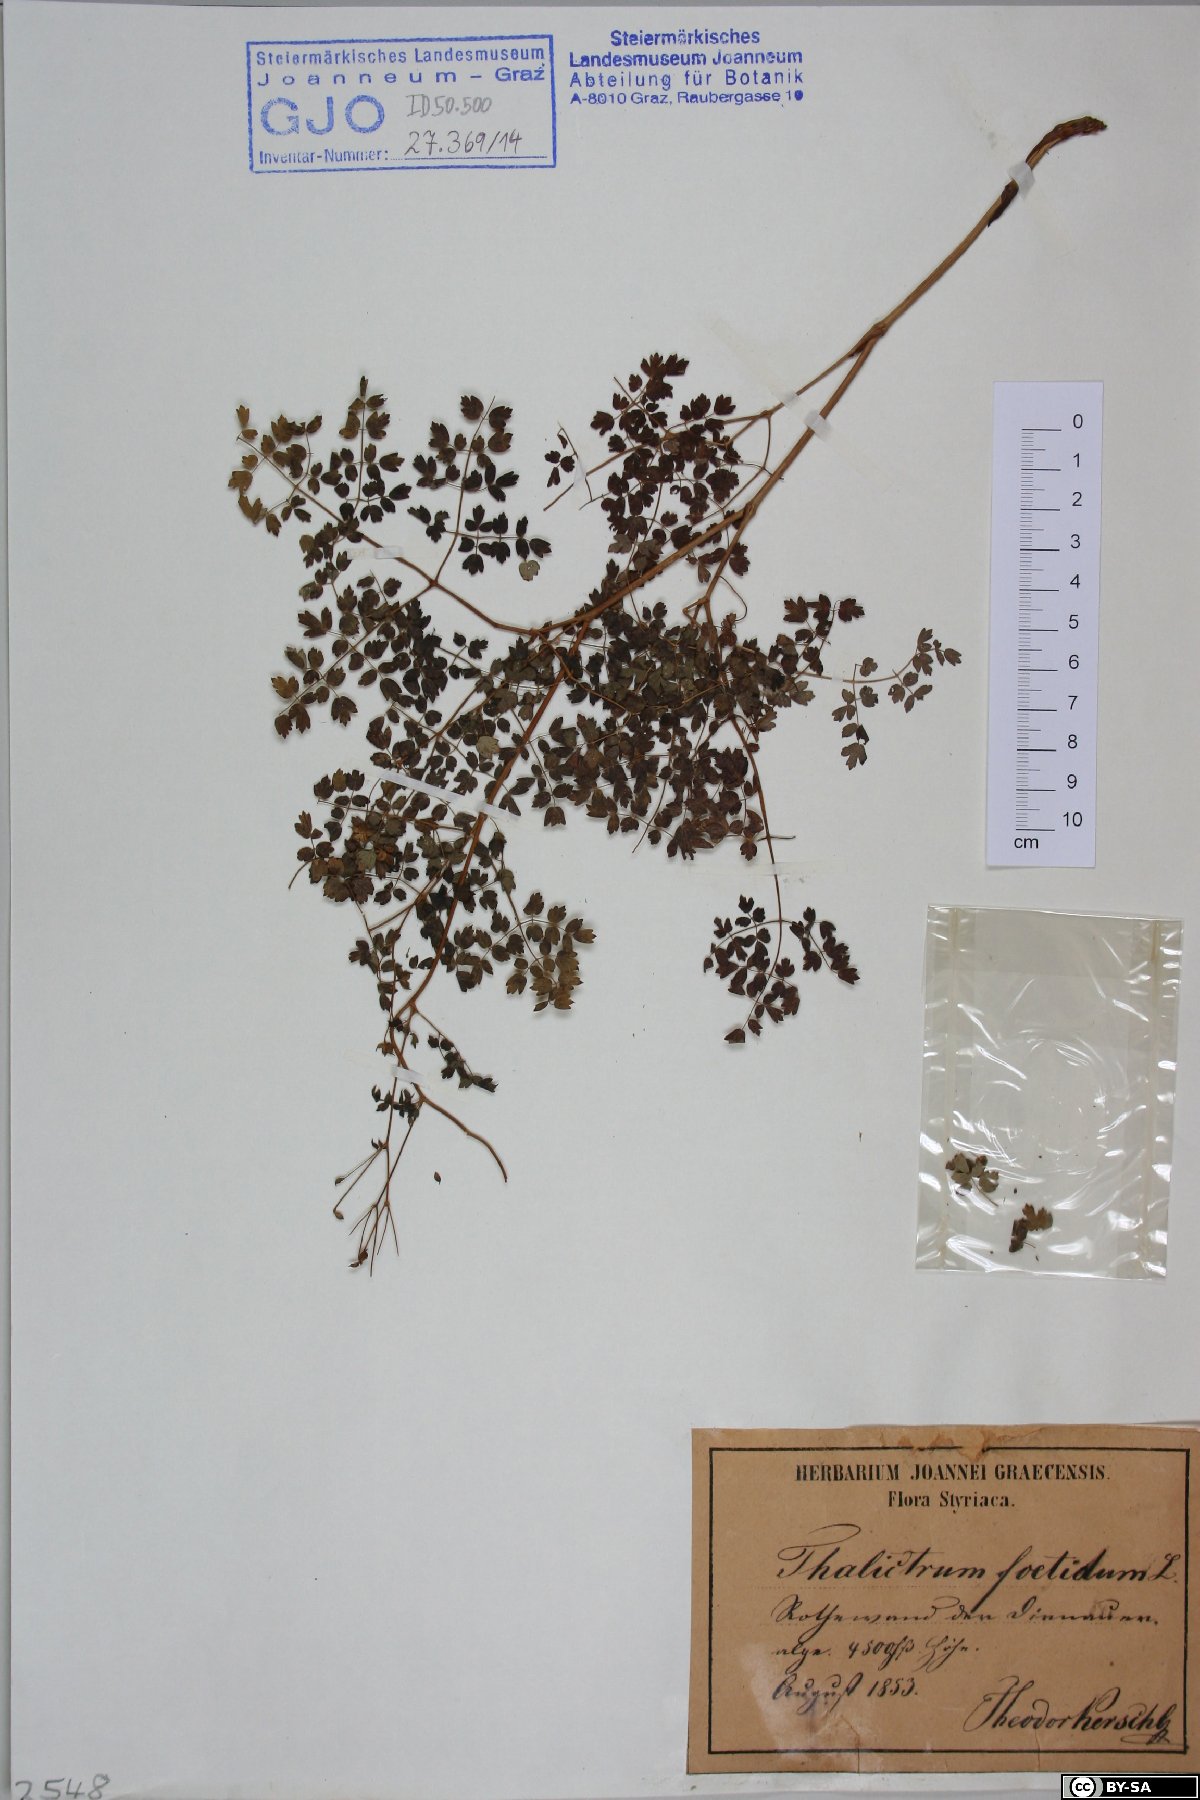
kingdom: Plantae
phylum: Tracheophyta
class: Magnoliopsida
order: Ranunculales
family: Ranunculaceae
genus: Thalictrum
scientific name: Thalictrum foetidum
